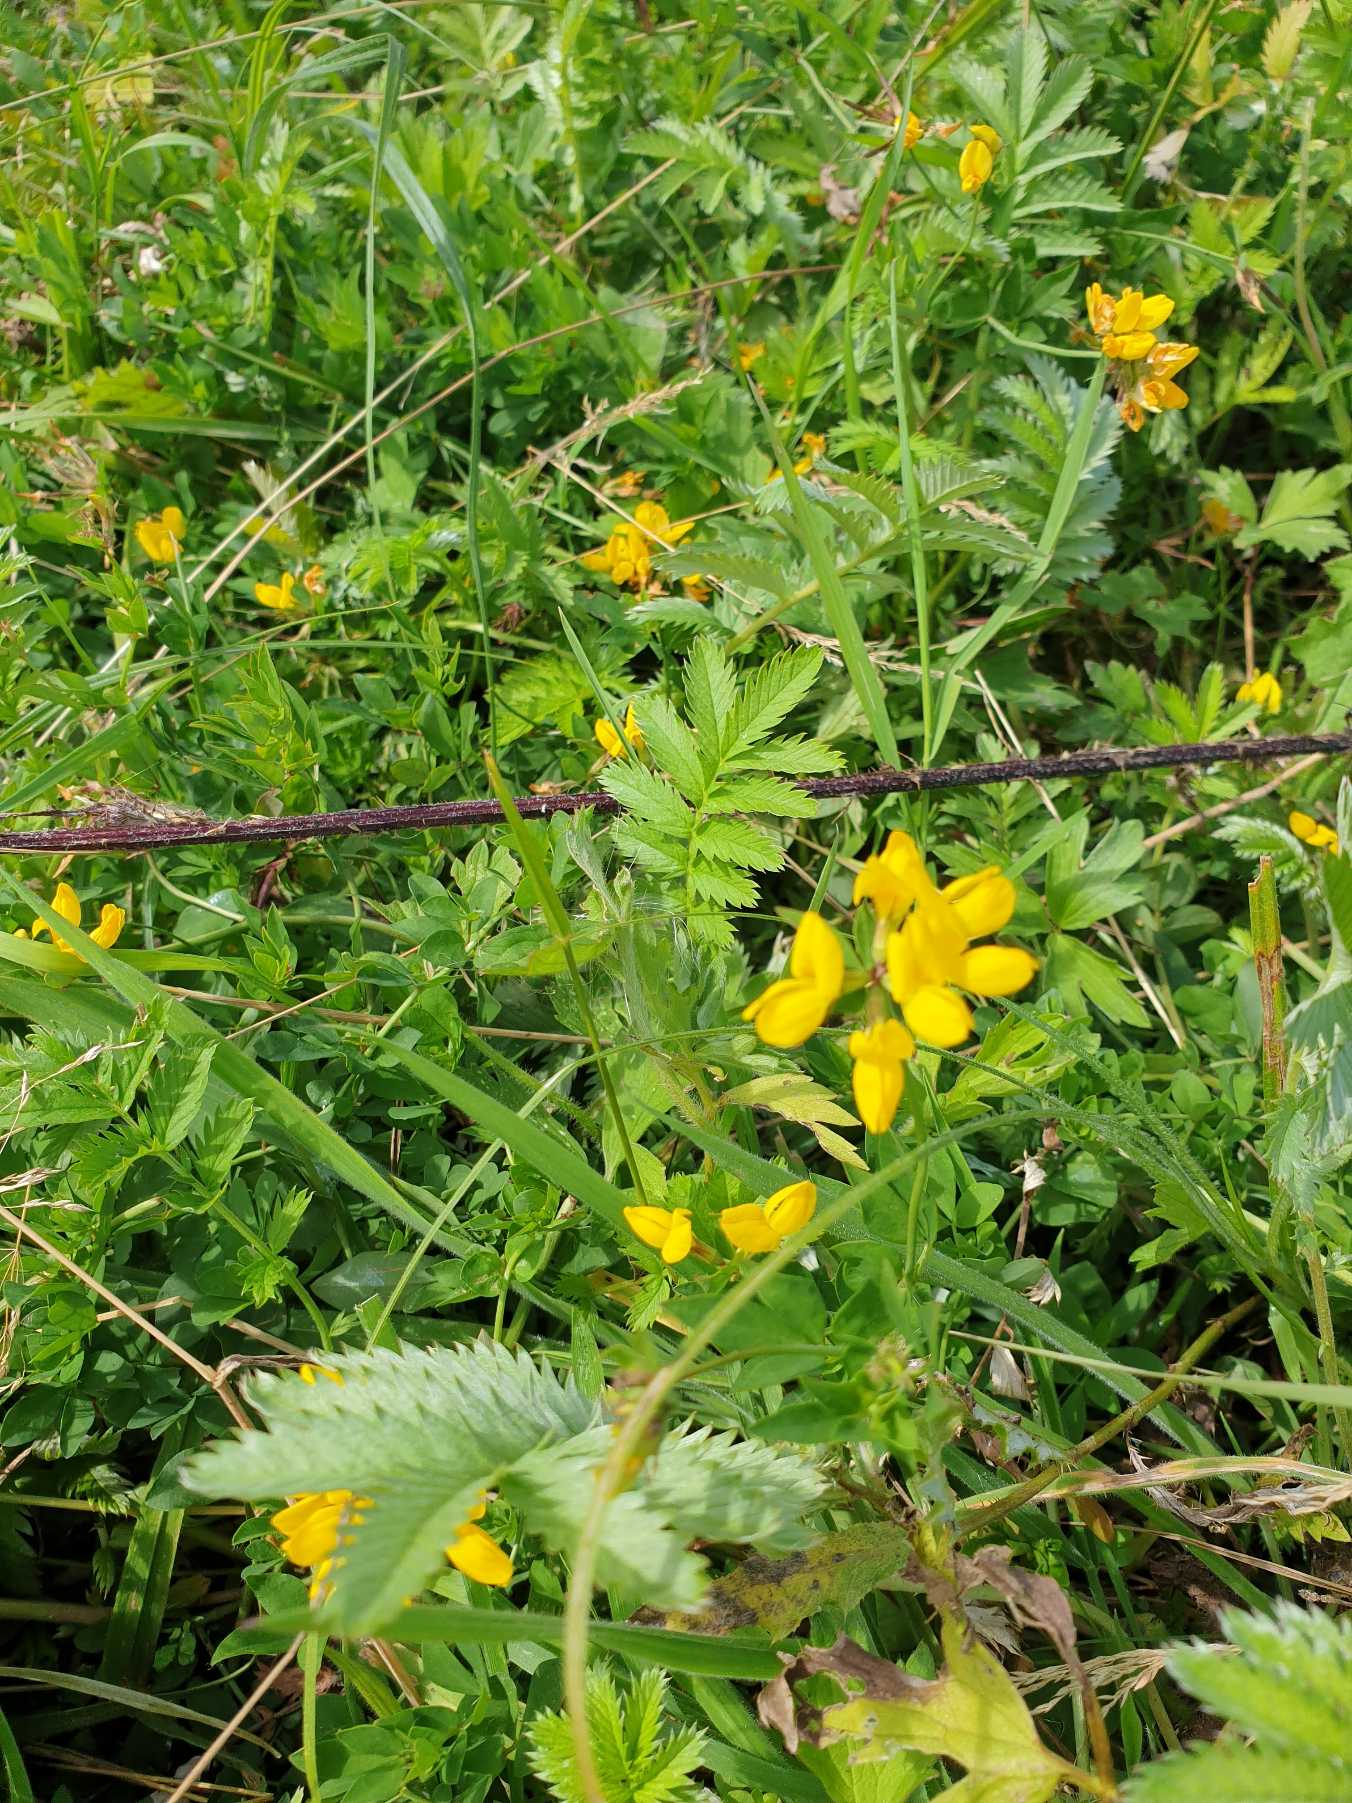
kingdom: Plantae
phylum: Tracheophyta
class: Magnoliopsida
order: Fabales
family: Fabaceae
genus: Lotus
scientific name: Lotus corniculatus
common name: Almindelig kællingetand
